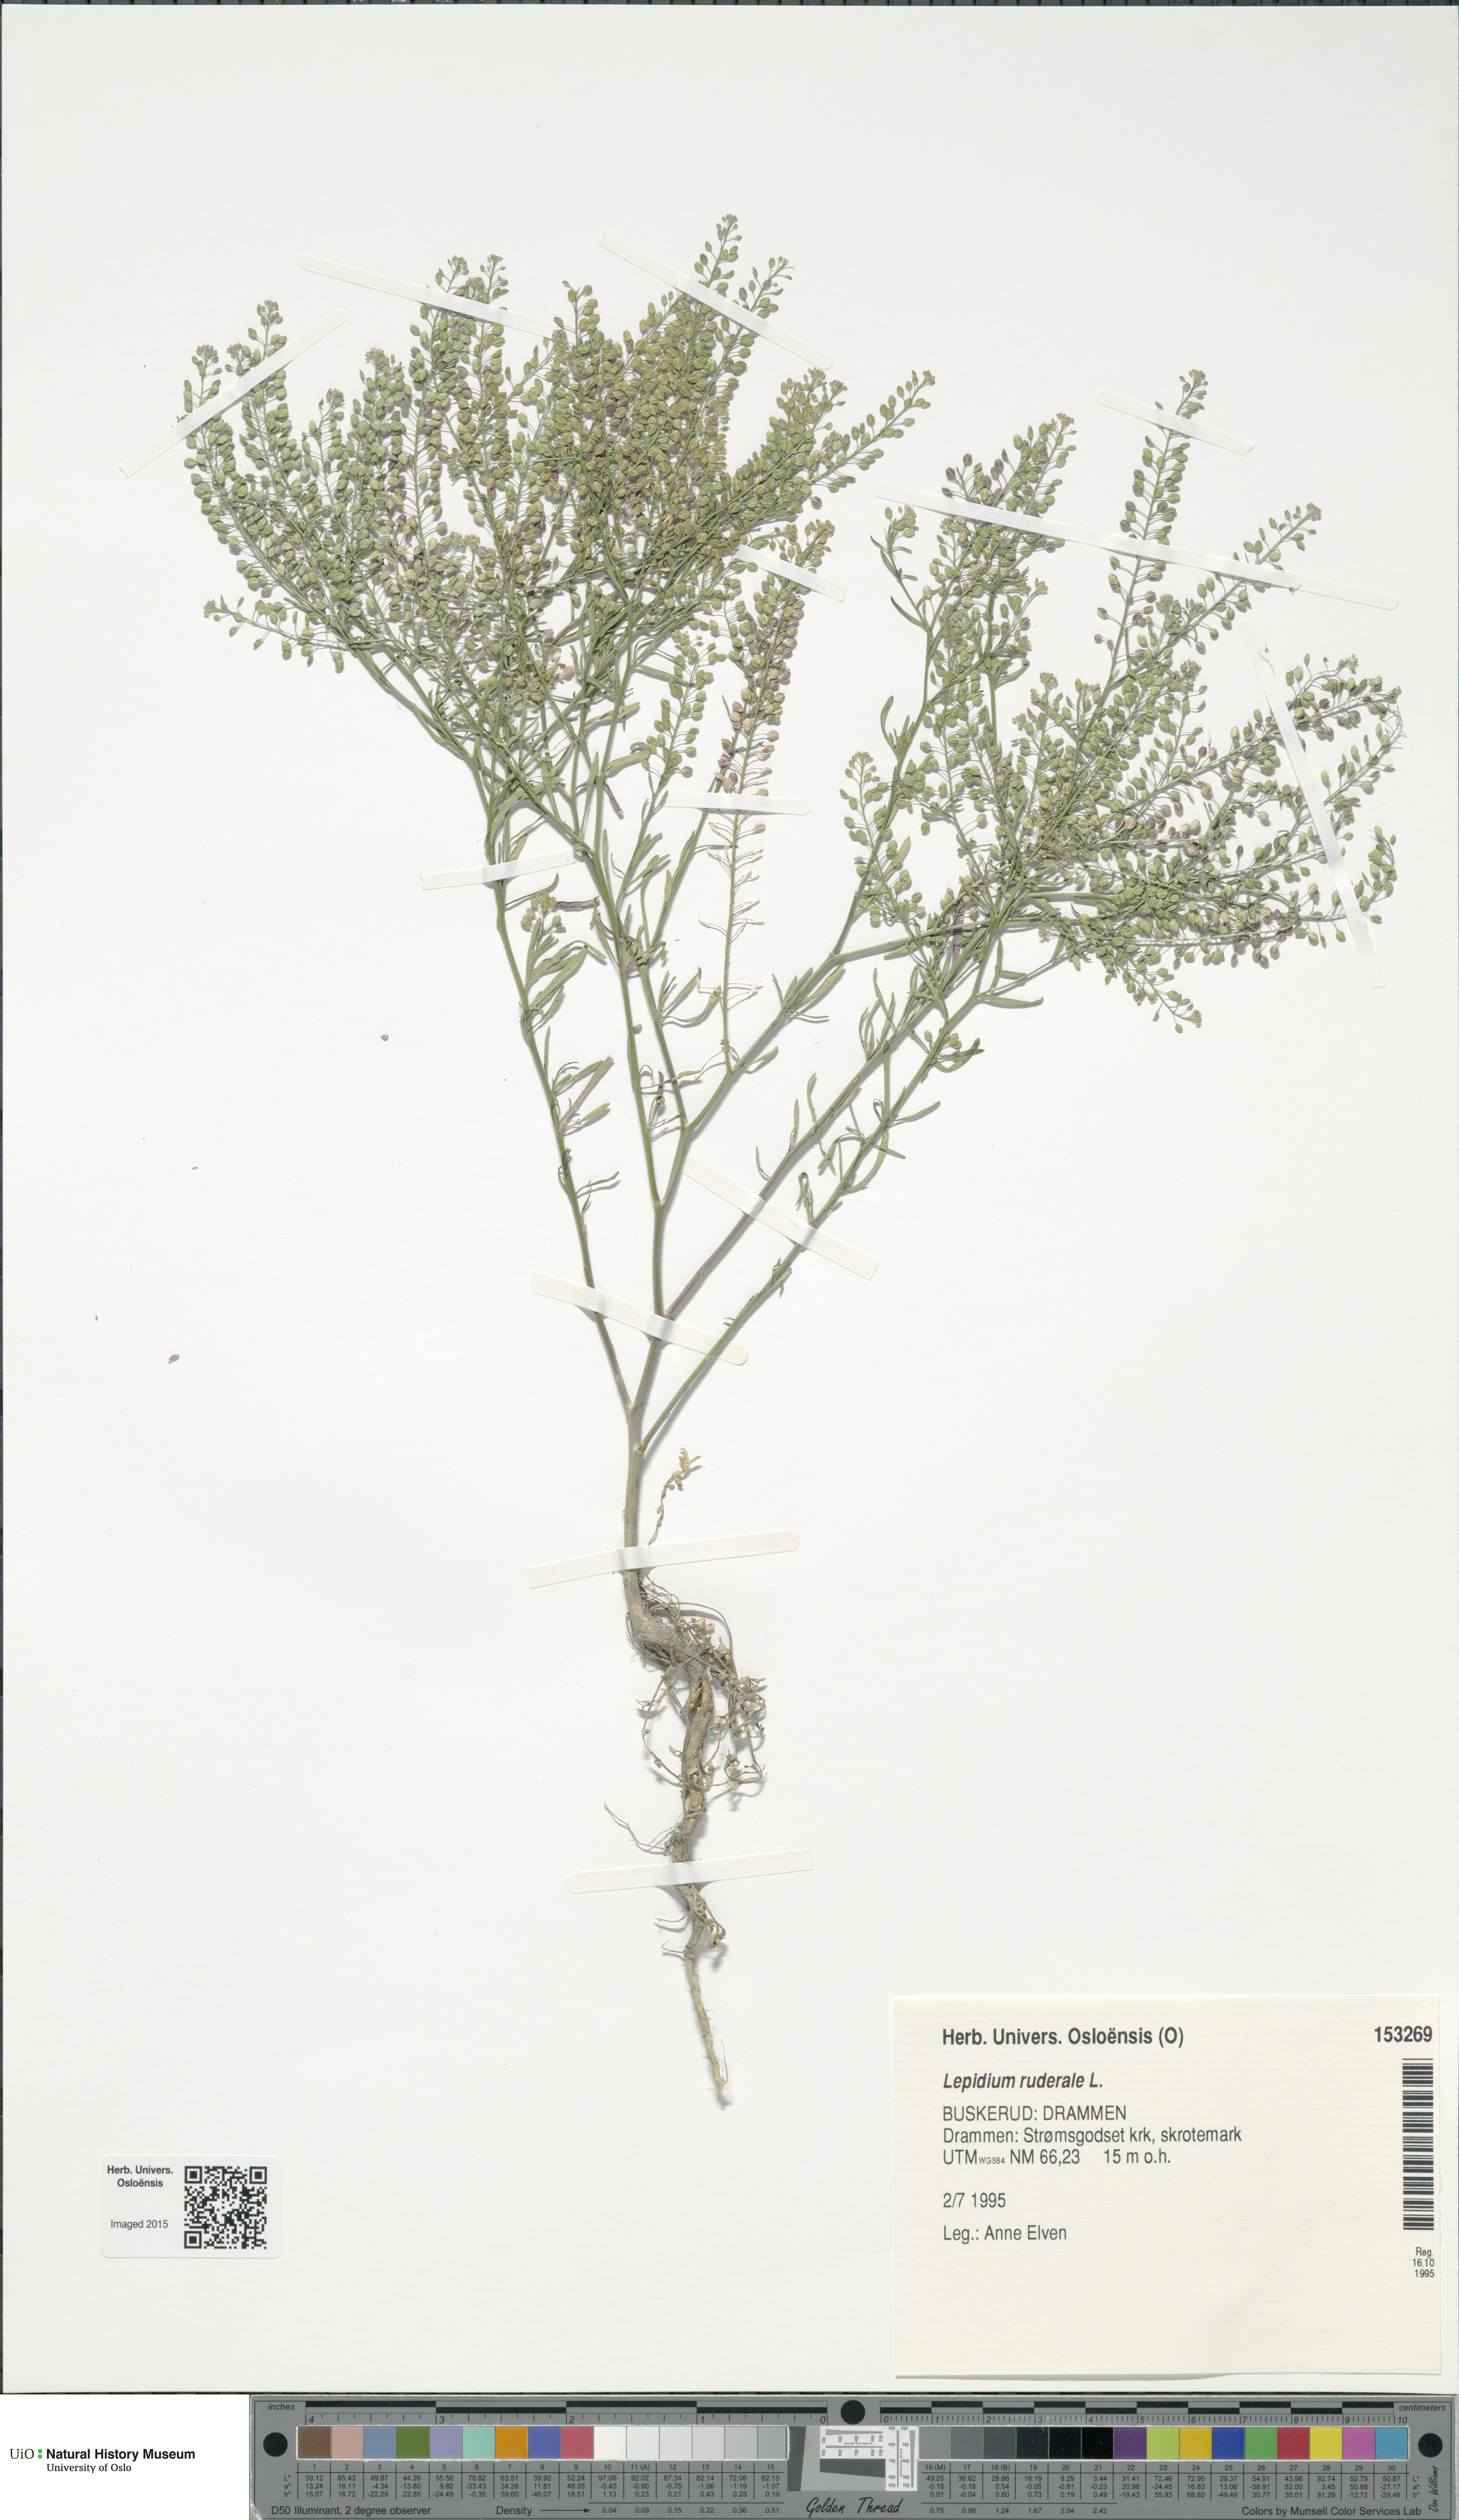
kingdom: Plantae
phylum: Tracheophyta
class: Magnoliopsida
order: Brassicales
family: Brassicaceae
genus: Lepidium
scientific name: Lepidium ruderale
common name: Narrow-leaved pepperwort
